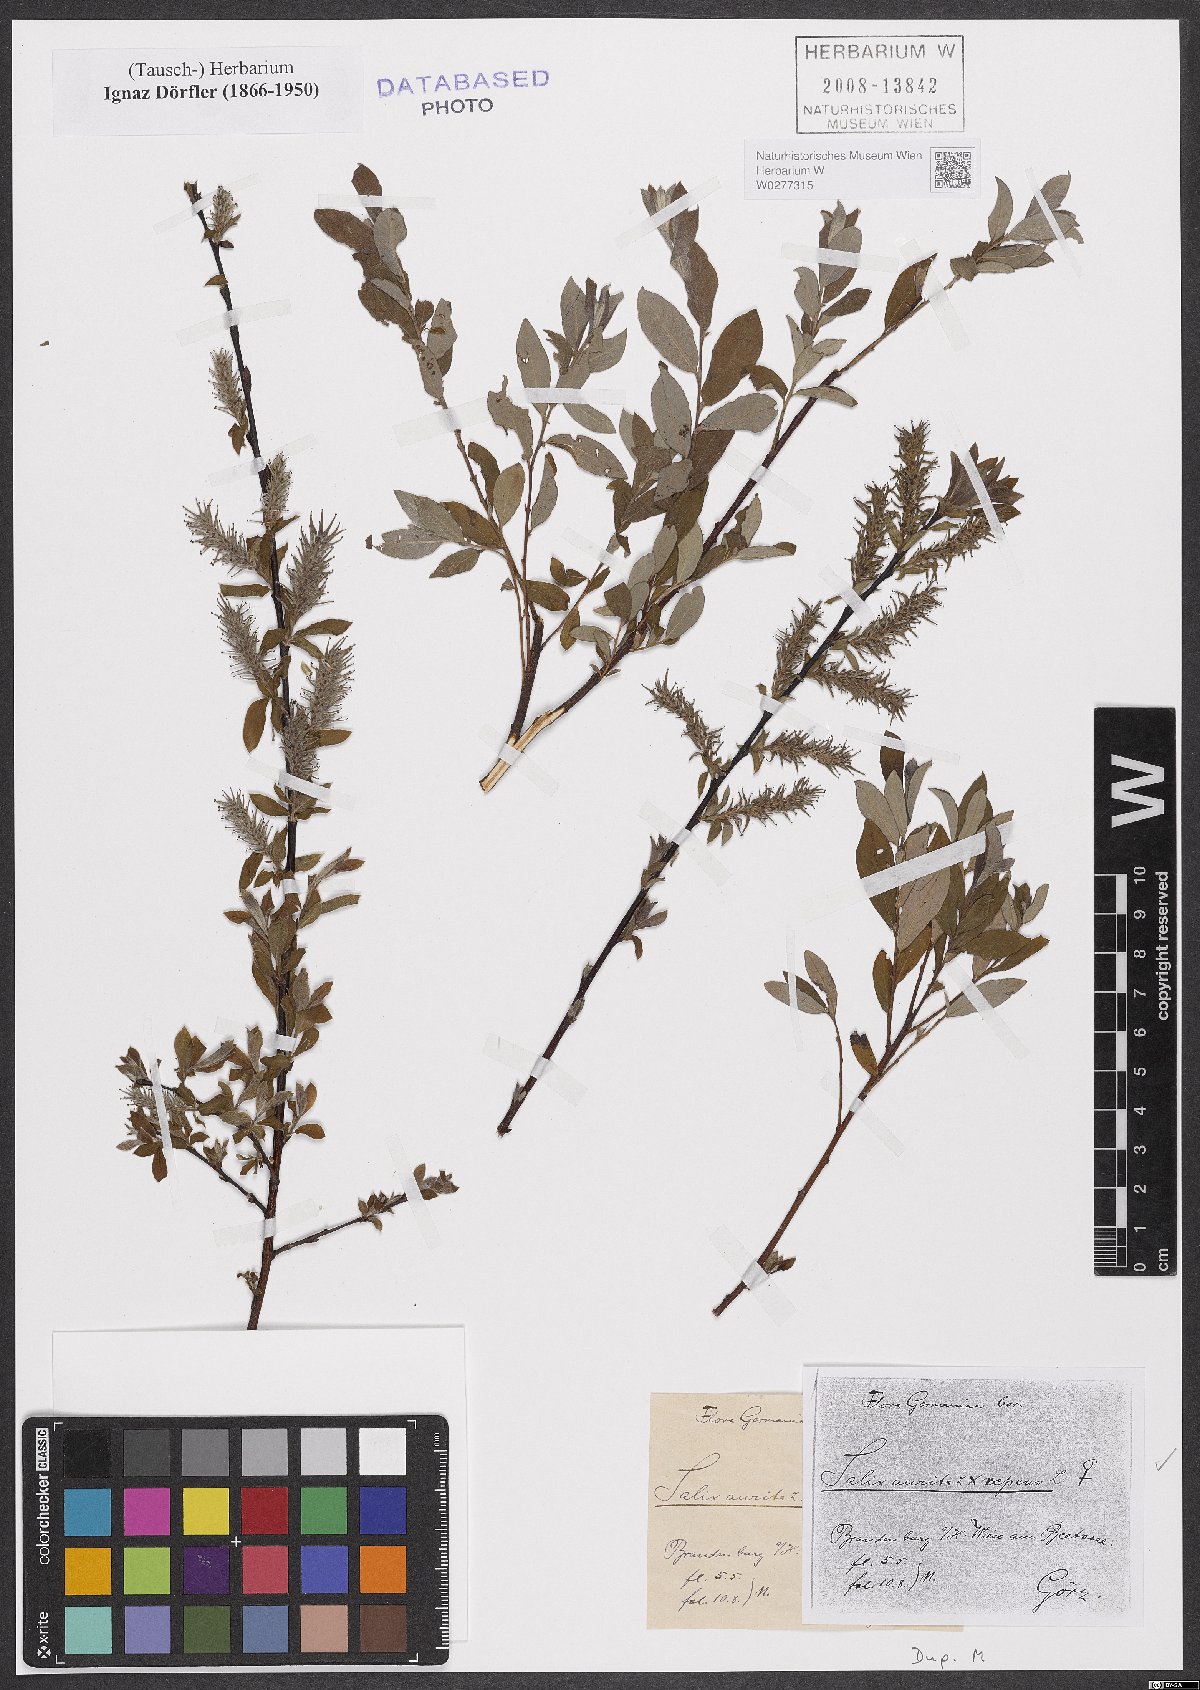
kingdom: Plantae
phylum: Tracheophyta
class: Magnoliopsida
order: Malpighiales
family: Salicaceae
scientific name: Salicaceae
